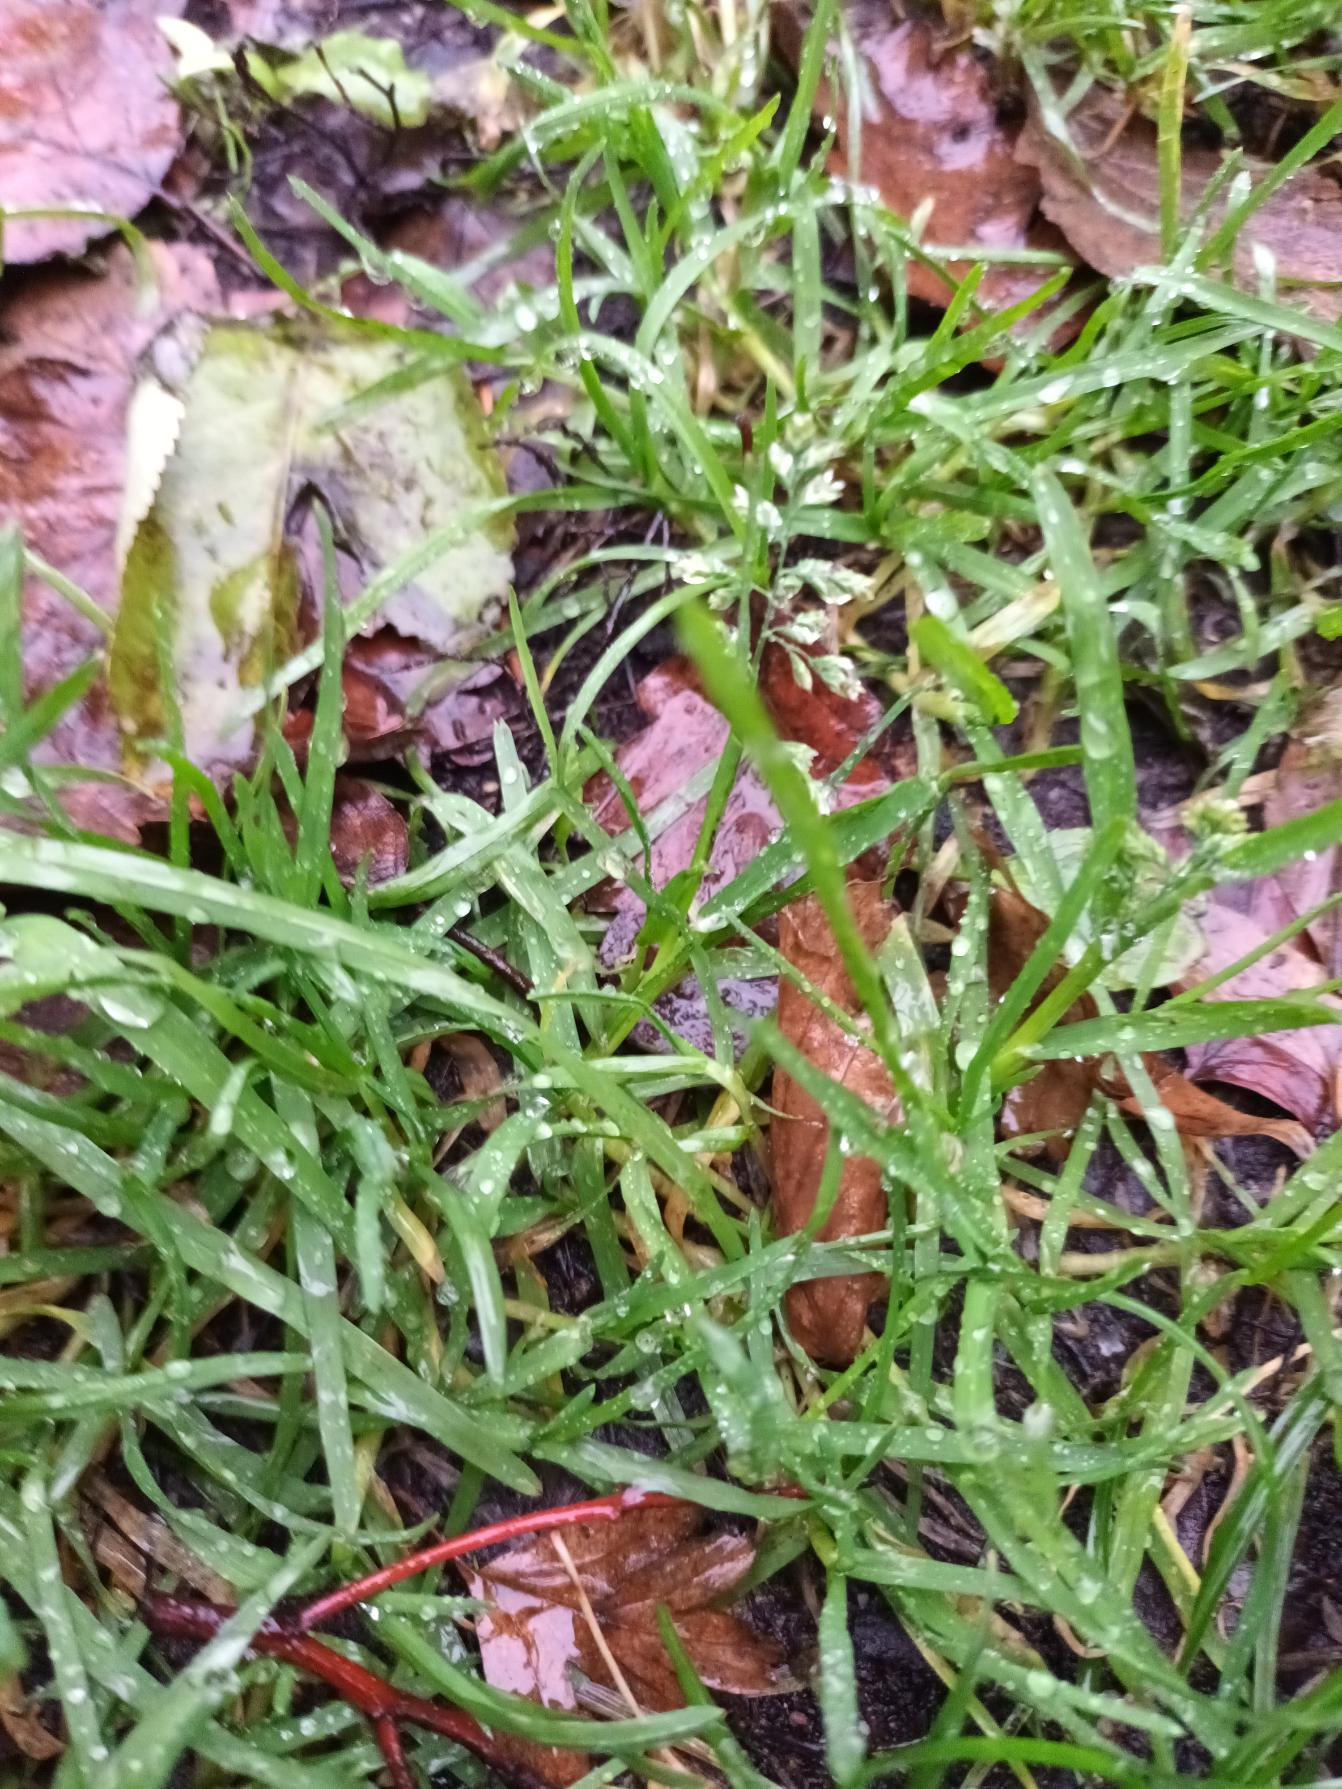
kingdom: Plantae
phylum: Tracheophyta
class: Liliopsida
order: Poales
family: Poaceae
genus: Poa
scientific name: Poa annua
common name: Enårig rapgræs
